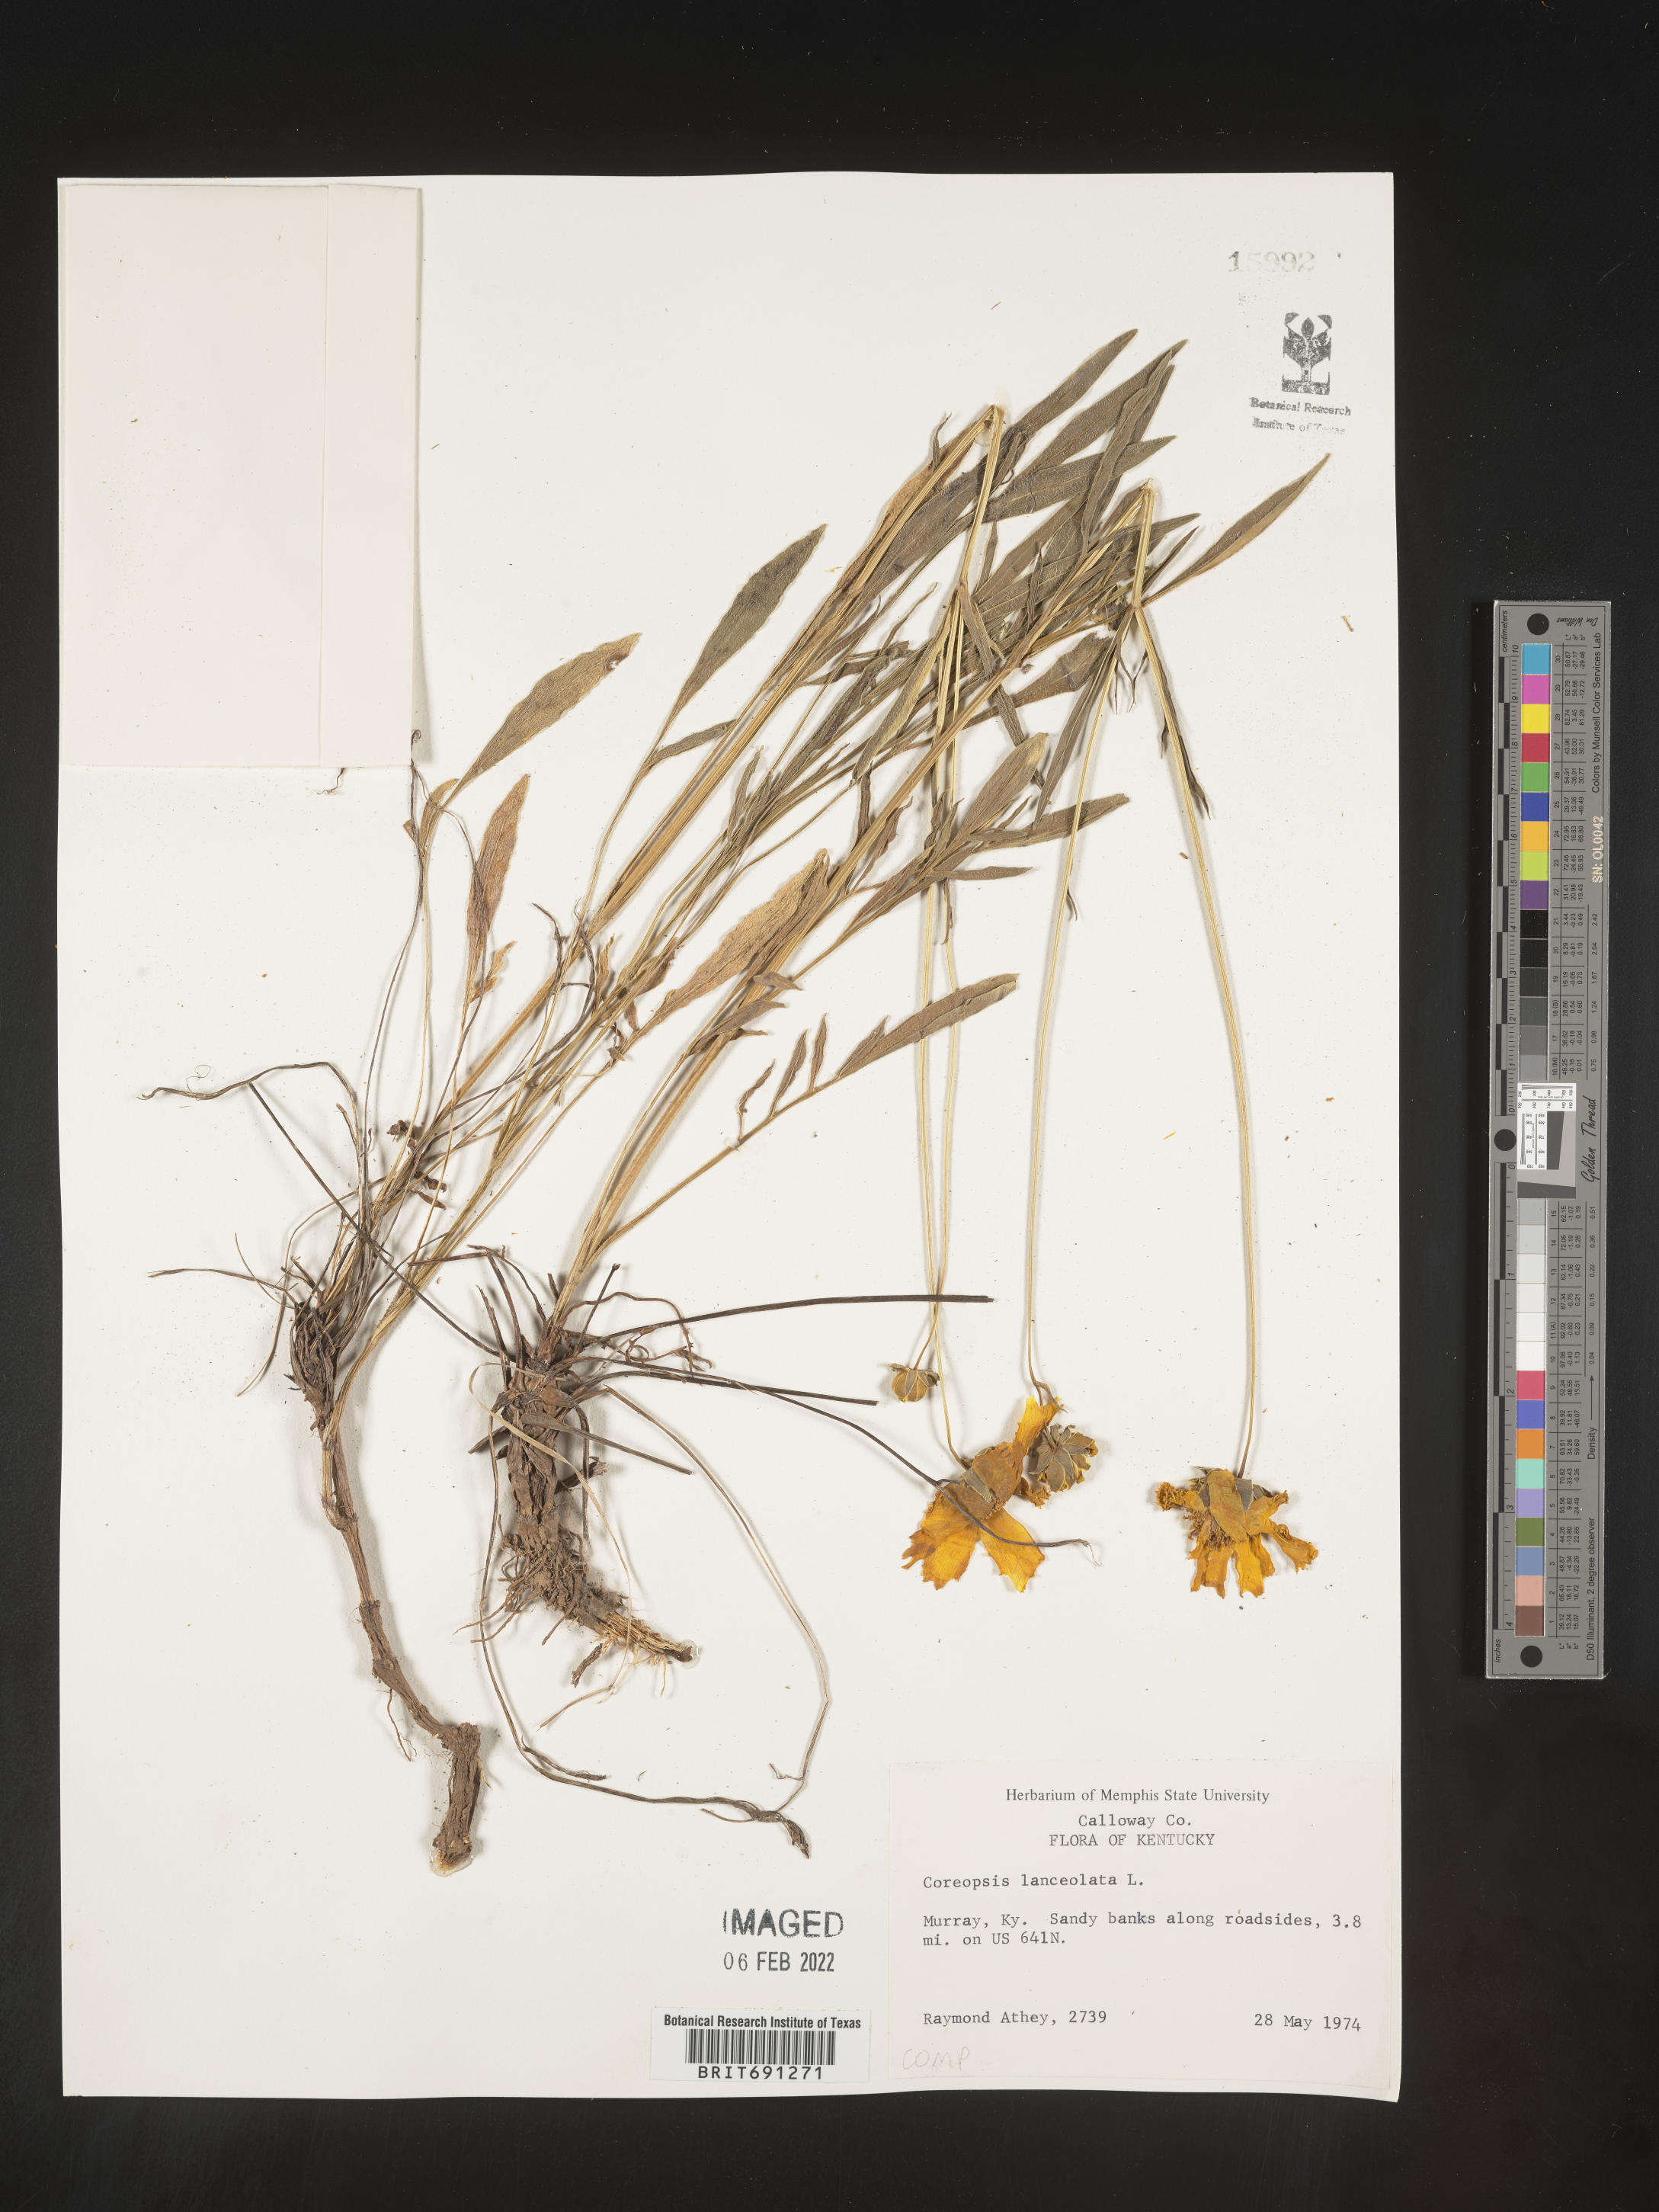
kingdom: Plantae
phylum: Tracheophyta
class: Magnoliopsida
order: Asterales
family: Asteraceae
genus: Coreopsis
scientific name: Coreopsis lanceolata
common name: Garden coreopsis
